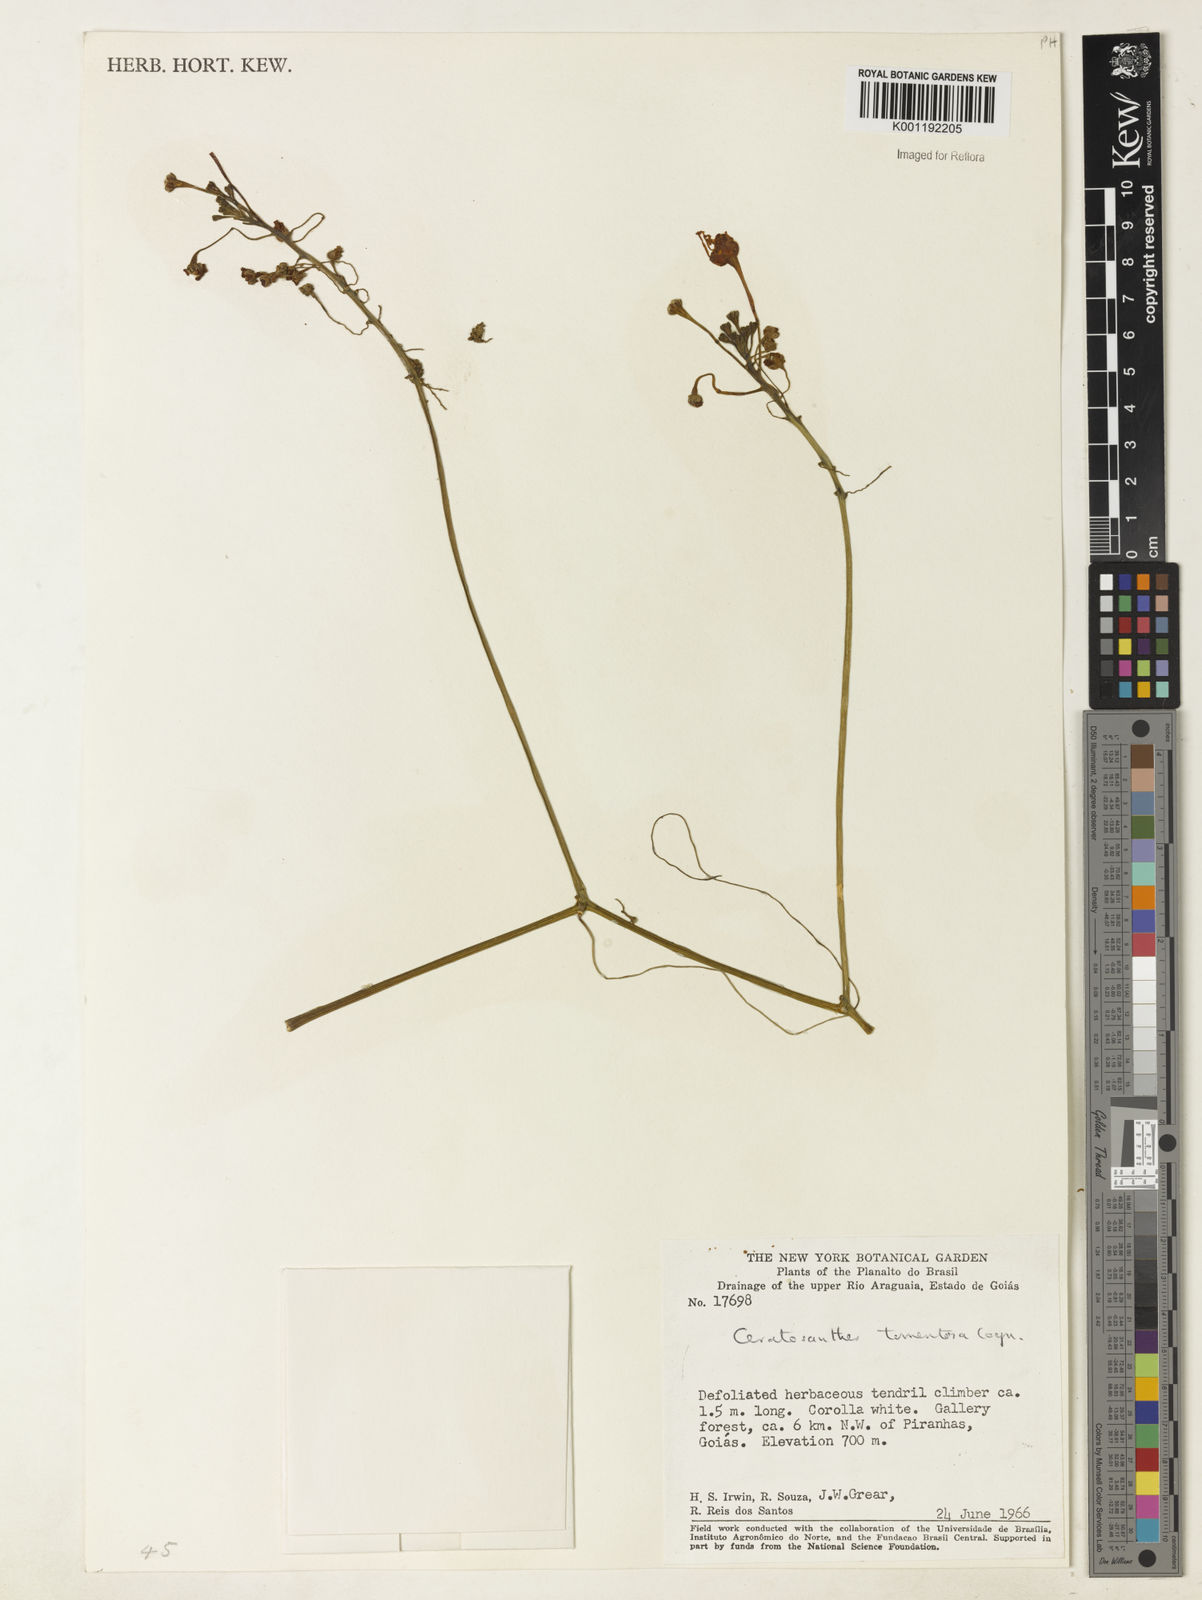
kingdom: Plantae
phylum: Tracheophyta
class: Magnoliopsida
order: Cucurbitales
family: Cucurbitaceae
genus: Ceratosanthes
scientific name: Ceratosanthes tomentosa
